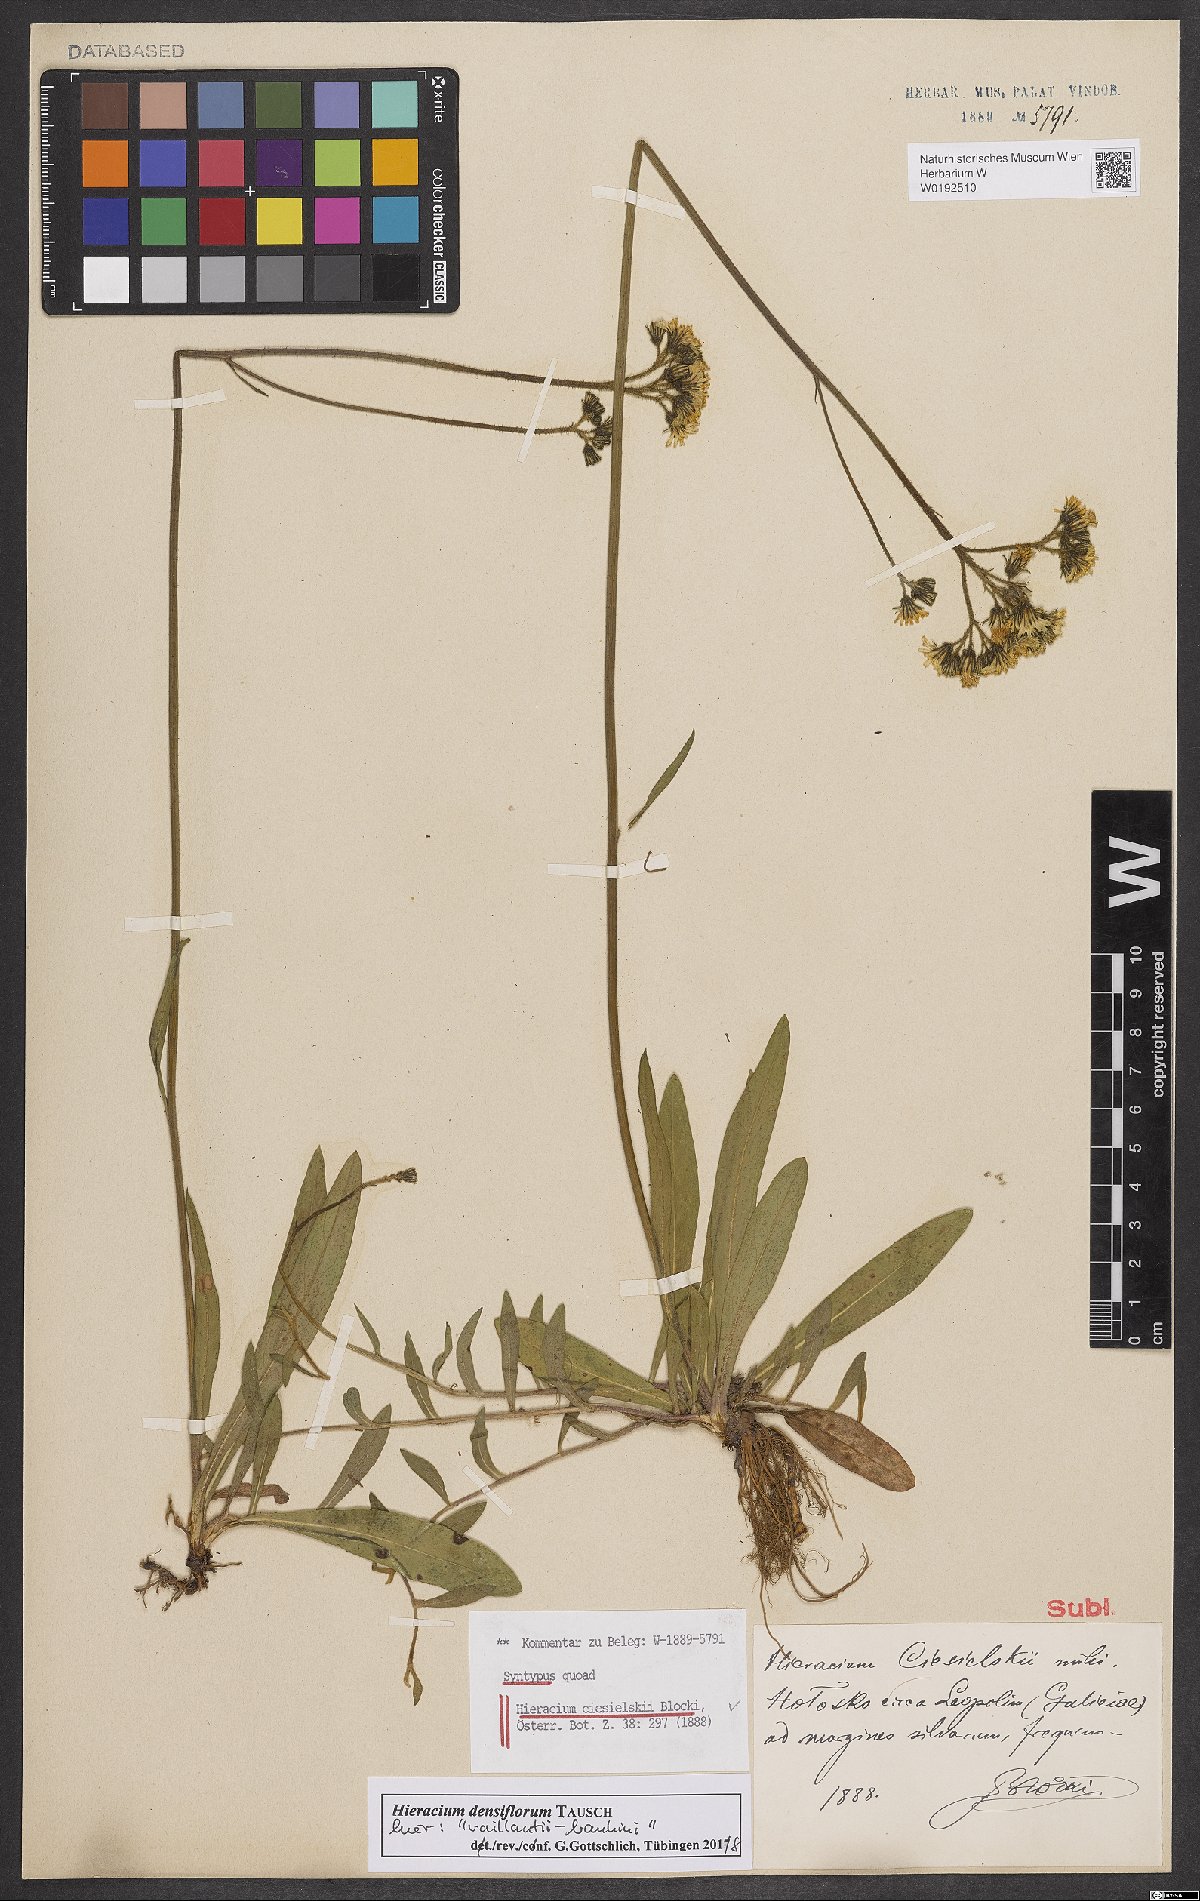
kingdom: Plantae
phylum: Tracheophyta
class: Magnoliopsida
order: Asterales
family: Asteraceae
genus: Pilosella
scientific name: Pilosella densiflora
